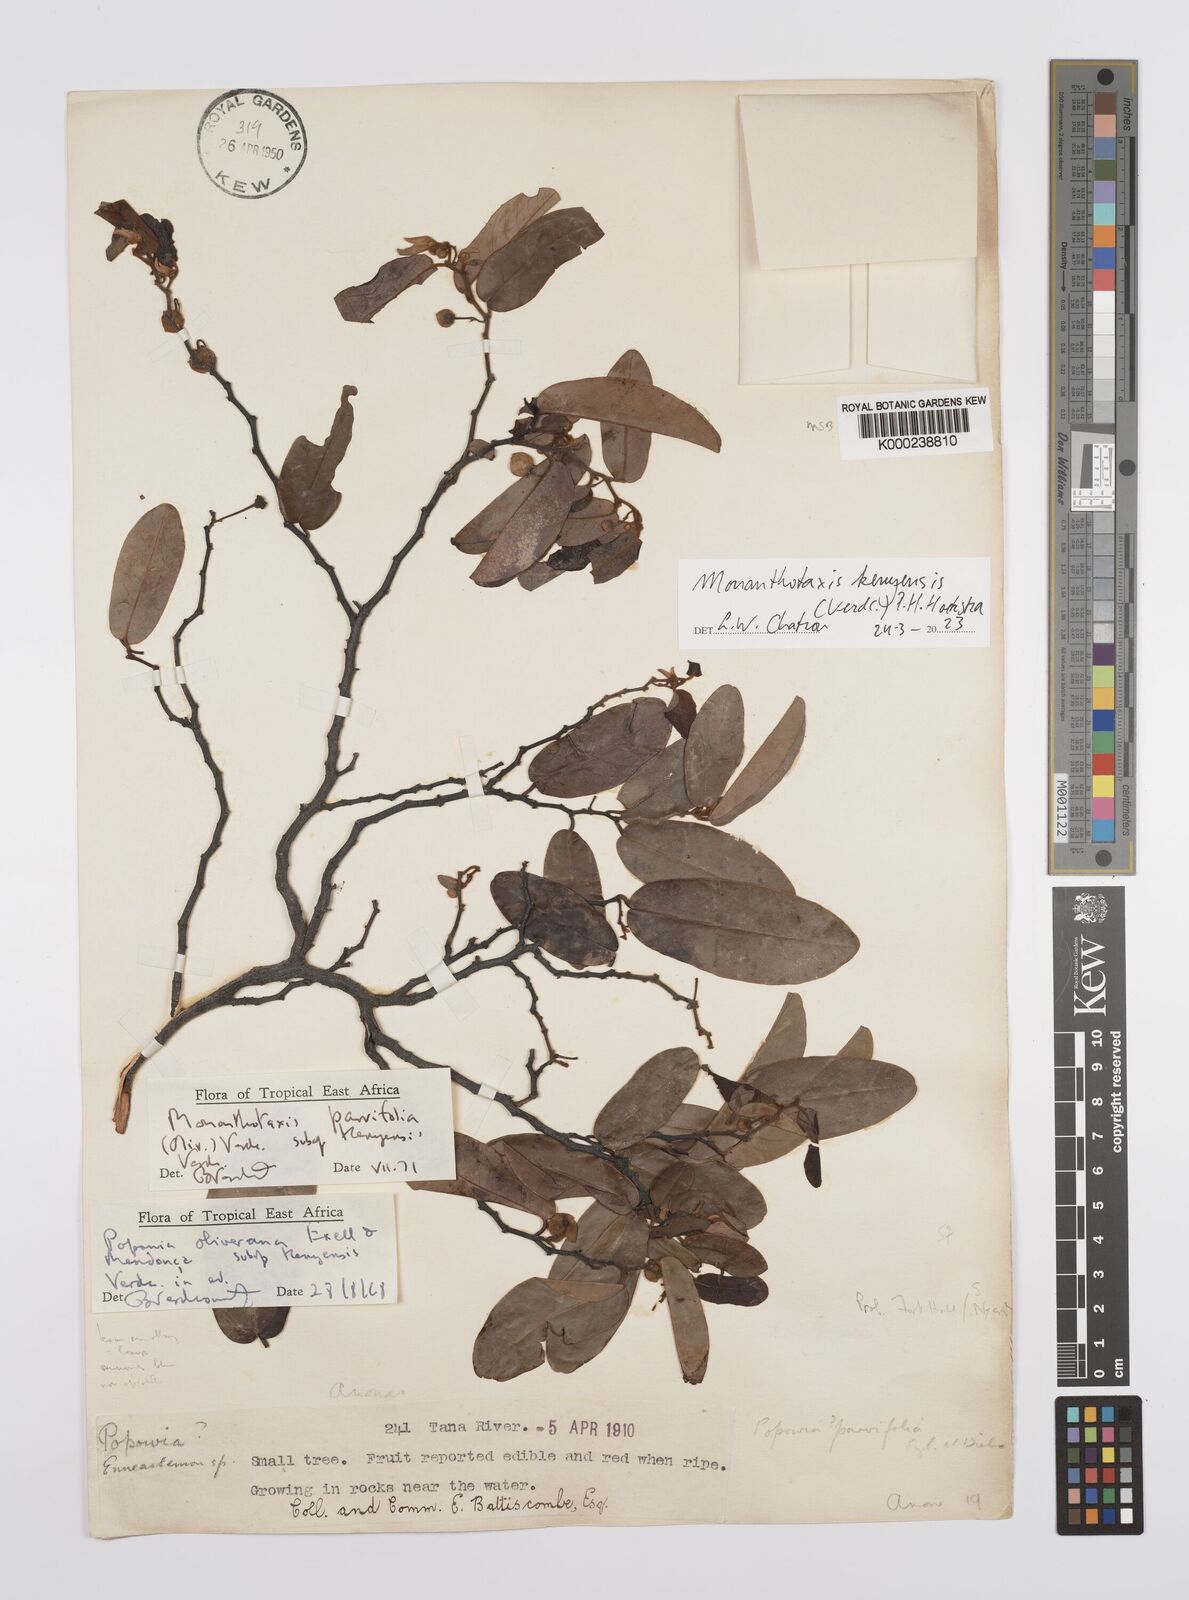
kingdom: Plantae
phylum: Tracheophyta
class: Magnoliopsida
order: Magnoliales
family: Annonaceae
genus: Monanthotaxis
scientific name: Monanthotaxis parvifolia
